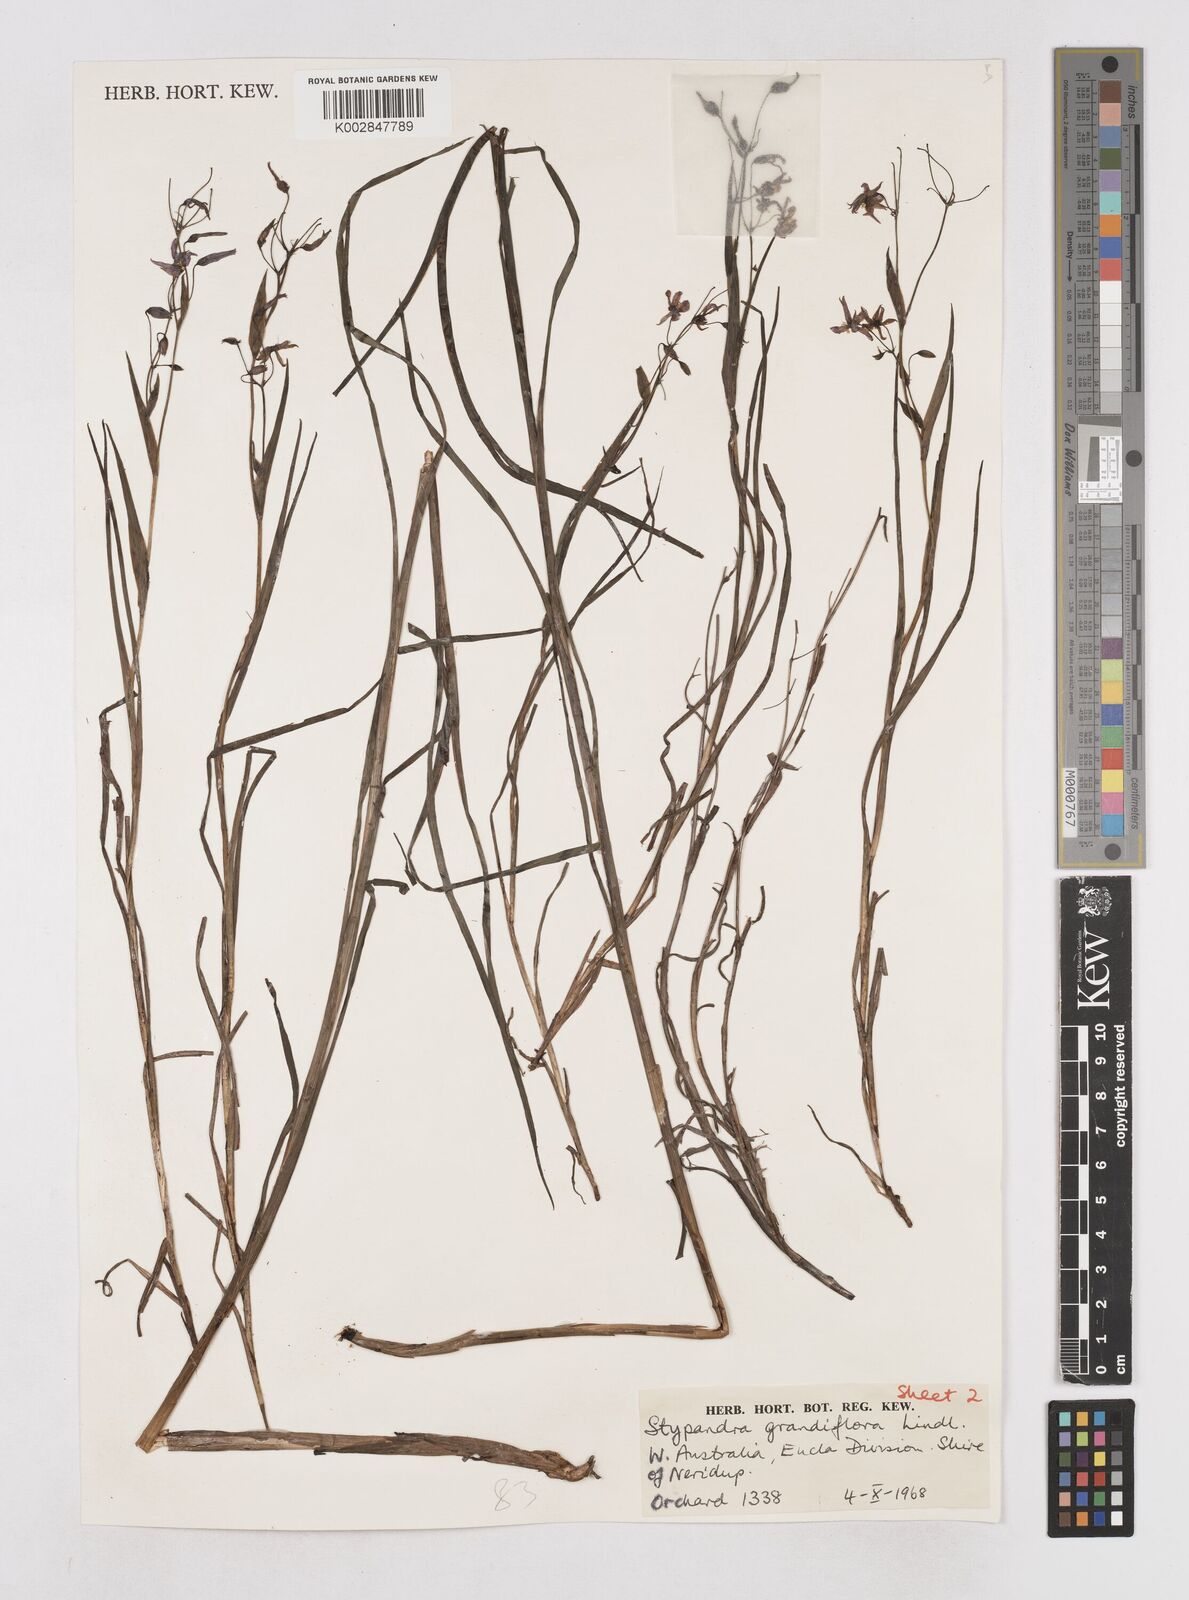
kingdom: Plantae
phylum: Tracheophyta
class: Liliopsida
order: Asparagales
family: Asphodelaceae
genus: Stypandra
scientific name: Stypandra glauca
